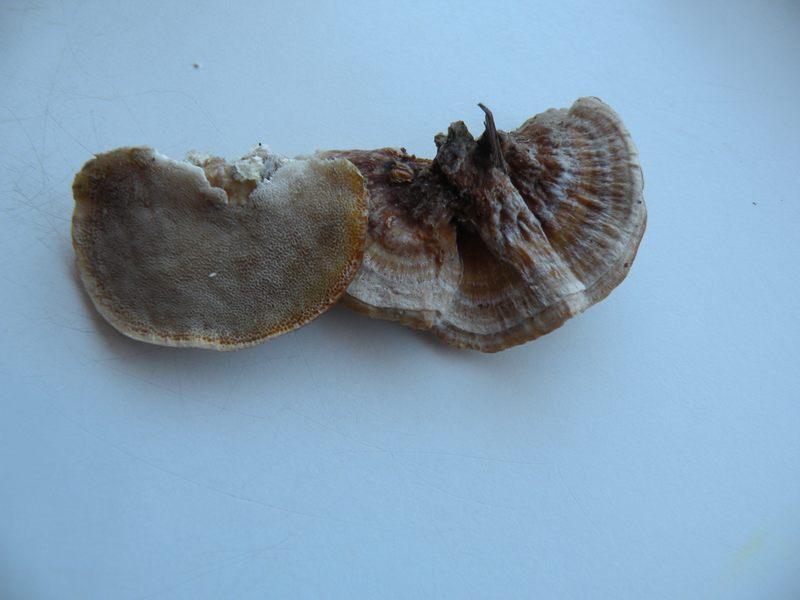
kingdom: Fungi
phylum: Basidiomycota
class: Agaricomycetes
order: Polyporales
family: Polyporaceae
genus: Trametes
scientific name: Trametes ochracea
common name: bæltet læderporesvamp
